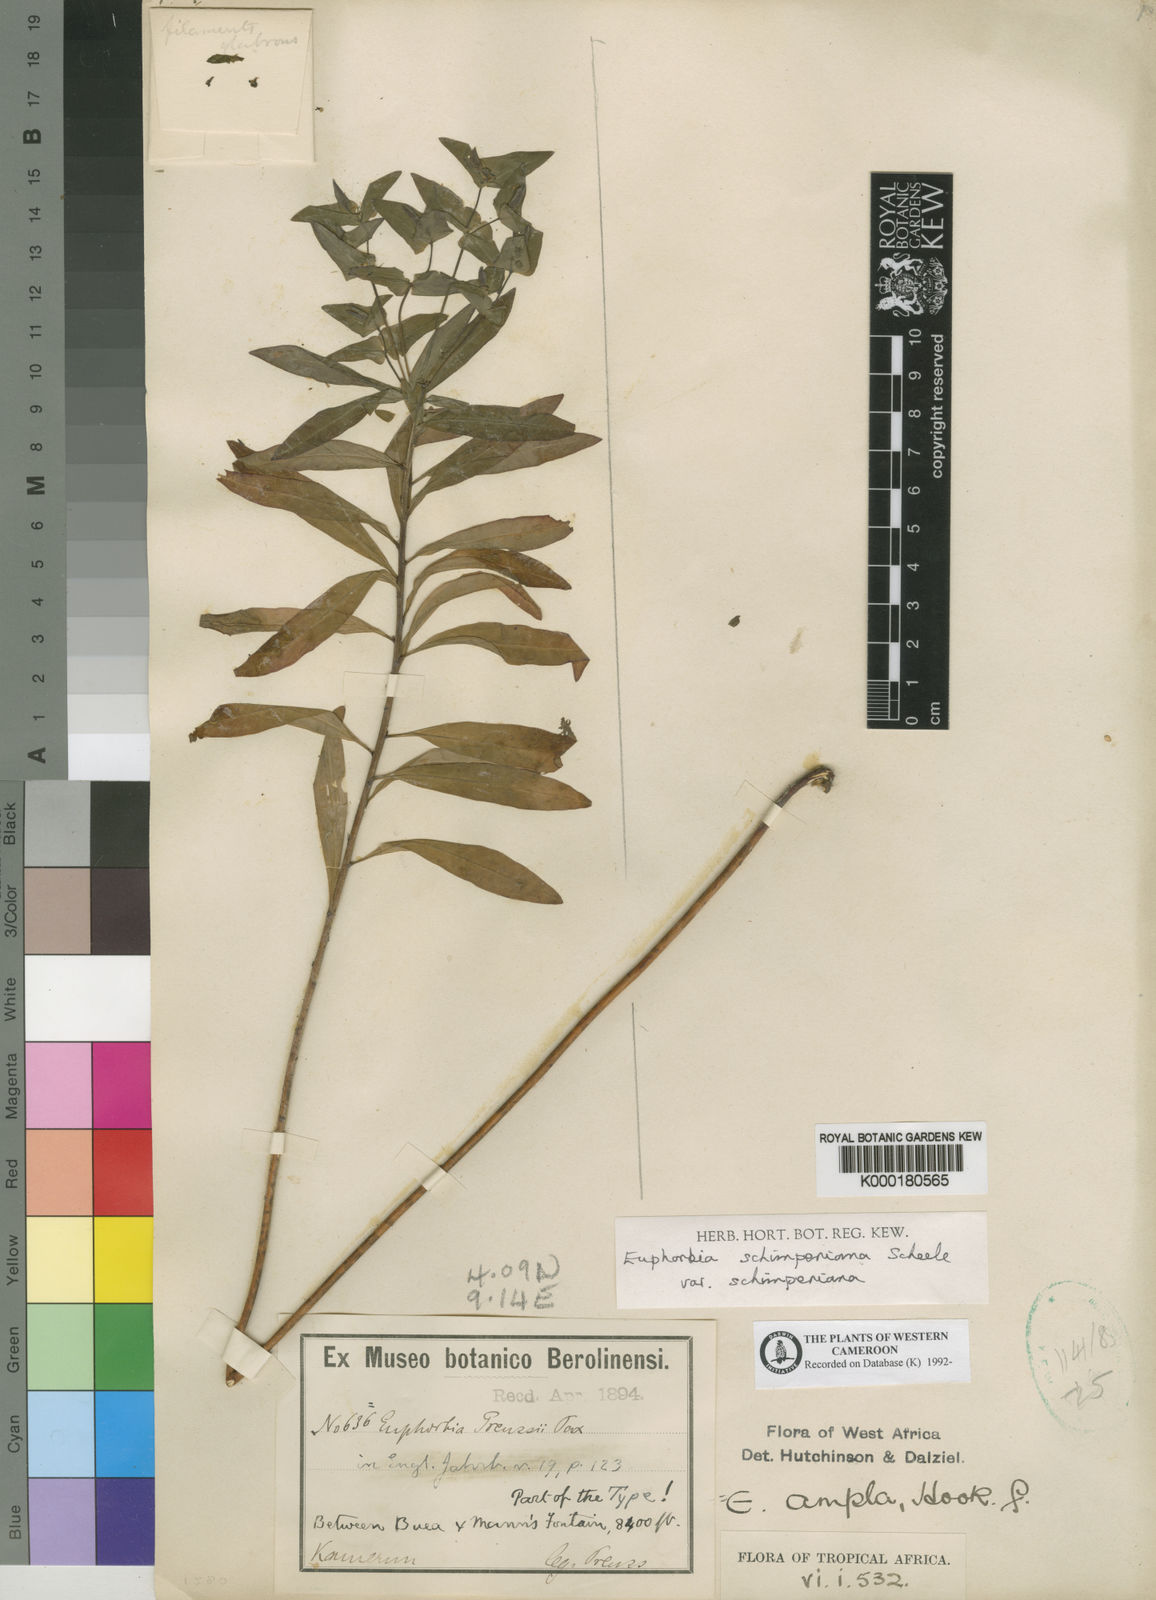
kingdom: Plantae
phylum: Tracheophyta
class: Magnoliopsida
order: Malpighiales
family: Euphorbiaceae
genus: Euphorbia
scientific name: Euphorbia schimperiana
